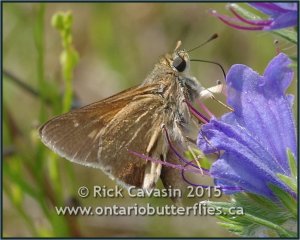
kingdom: Animalia
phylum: Arthropoda
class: Insecta
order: Lepidoptera
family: Hesperiidae
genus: Polites
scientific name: Polites themistocles
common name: Tawny-edged Skipper
